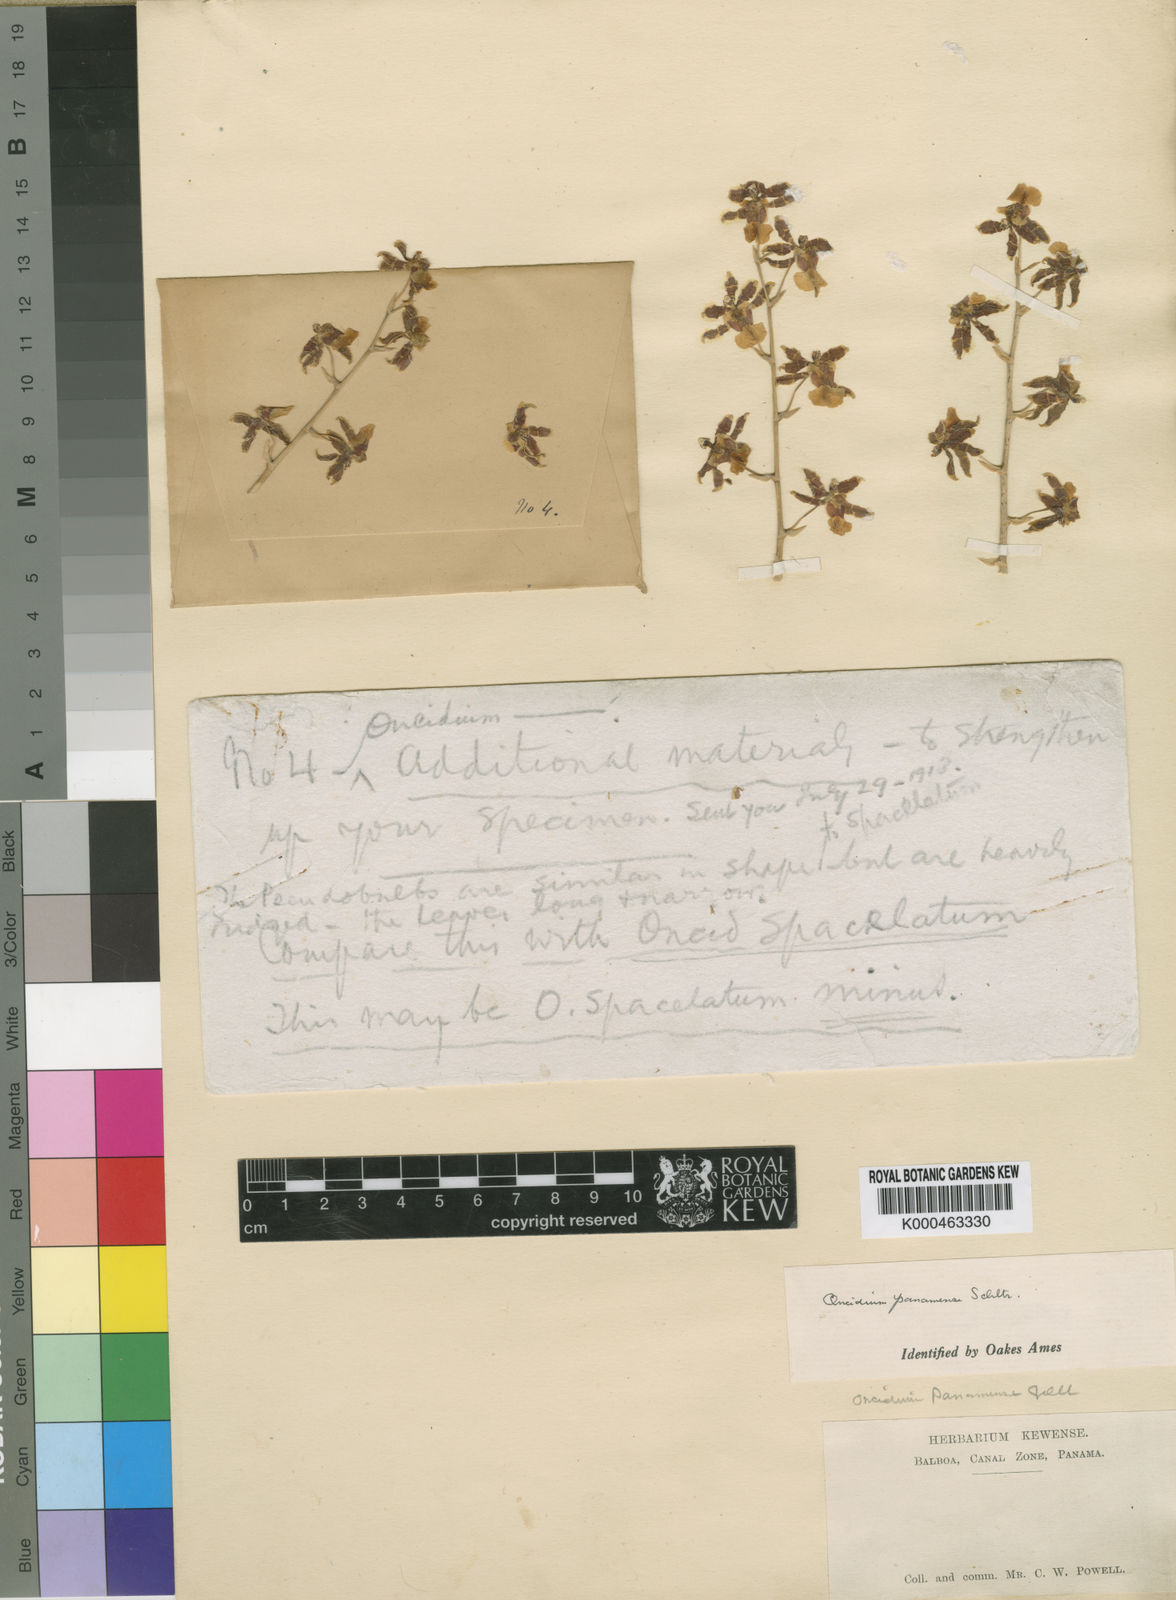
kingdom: Plantae
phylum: Tracheophyta
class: Liliopsida
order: Asparagales
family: Orchidaceae
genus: Oncidium
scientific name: Oncidium panamense
